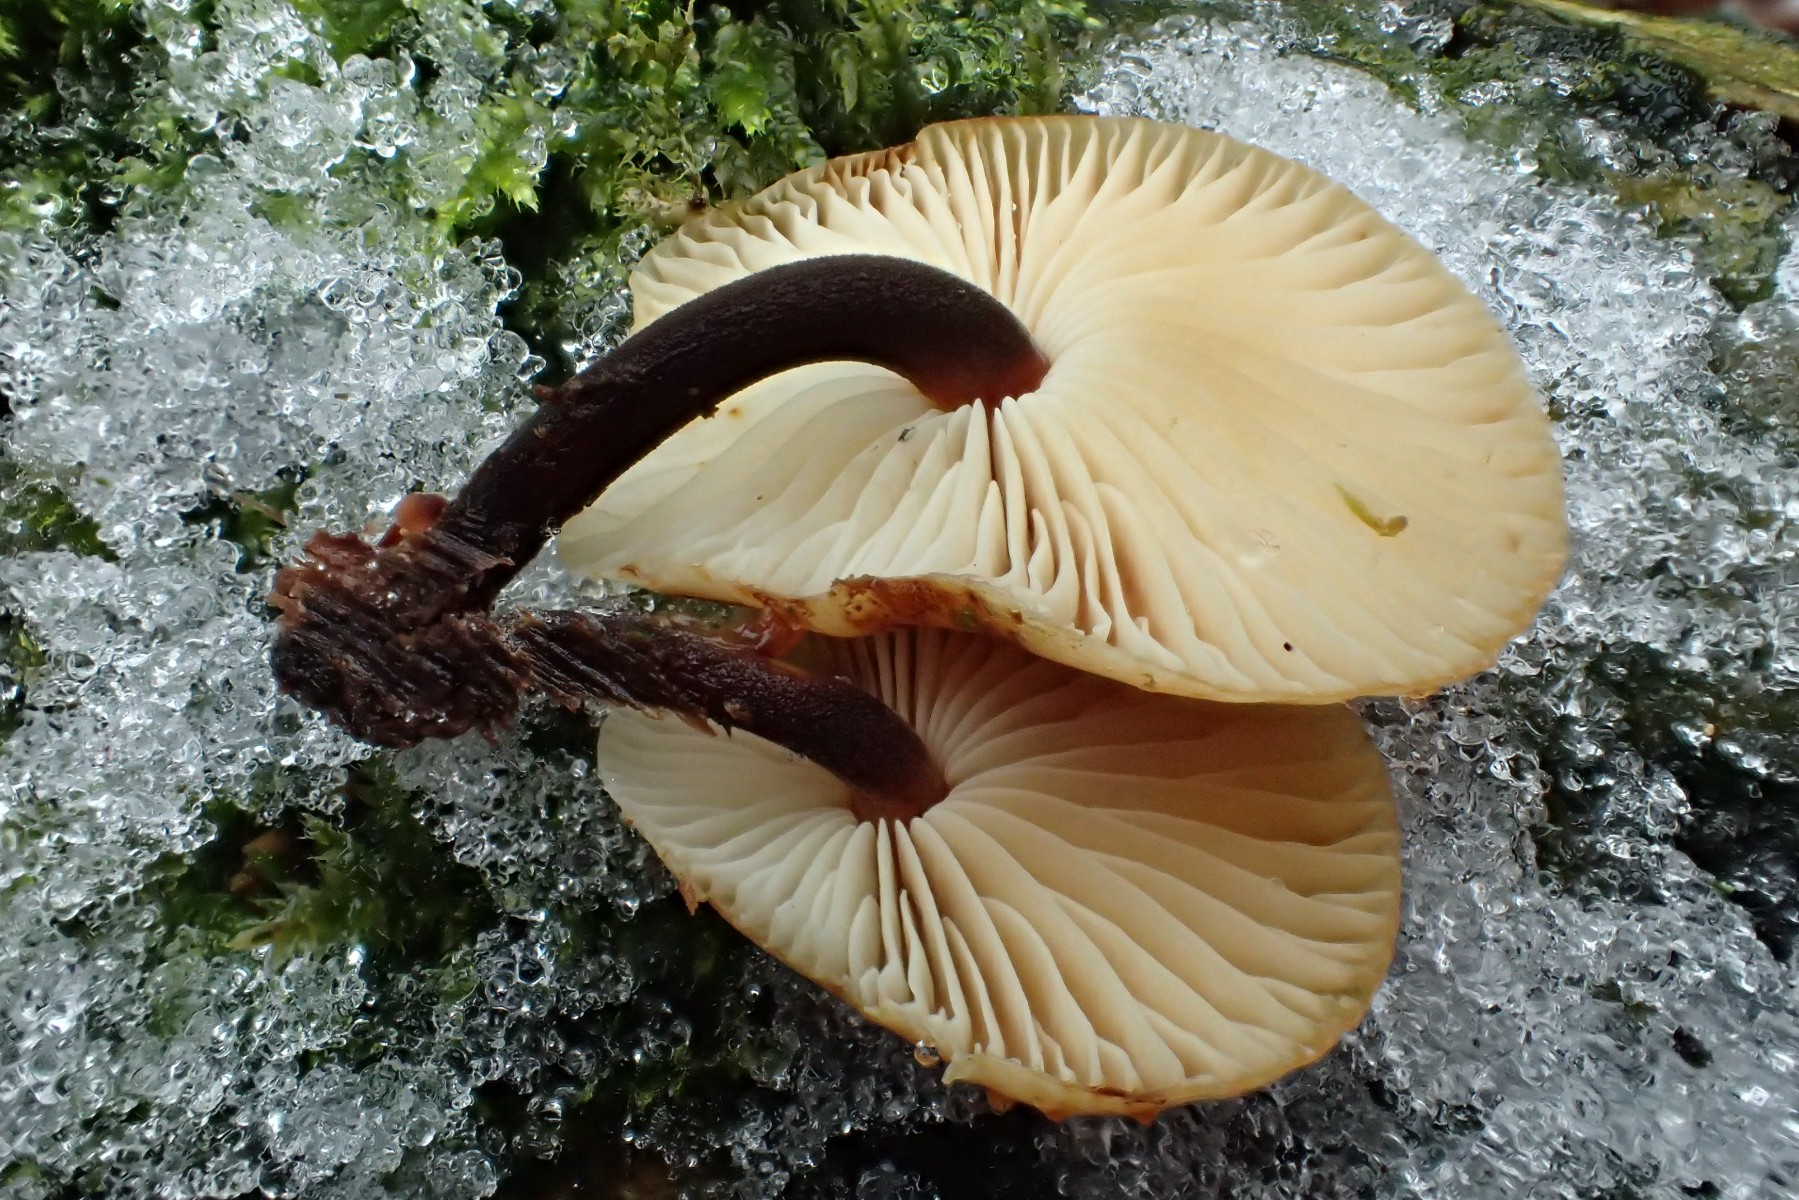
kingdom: Fungi
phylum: Basidiomycota
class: Agaricomycetes
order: Agaricales
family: Physalacriaceae
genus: Flammulina
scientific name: Flammulina velutipes
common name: gul fløjlsfod
